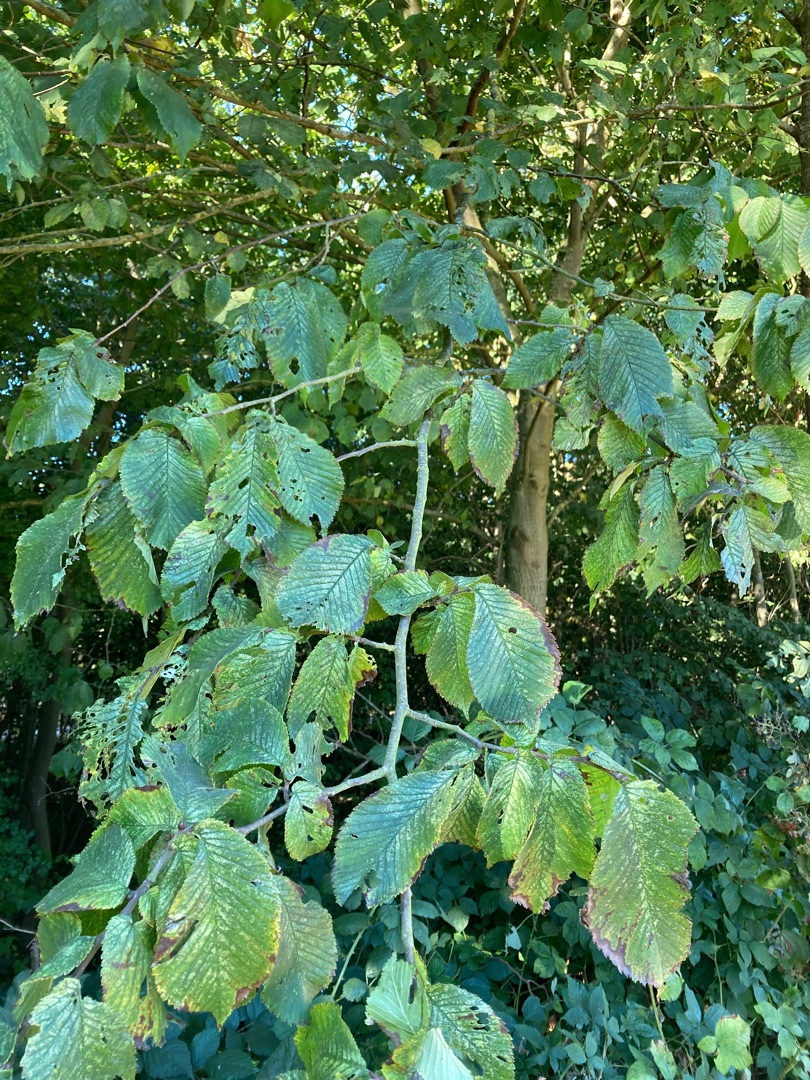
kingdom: Plantae
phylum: Tracheophyta
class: Magnoliopsida
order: Rosales
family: Ulmaceae
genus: Ulmus
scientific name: Ulmus glabra
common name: Skov-elm/storbladet elm
